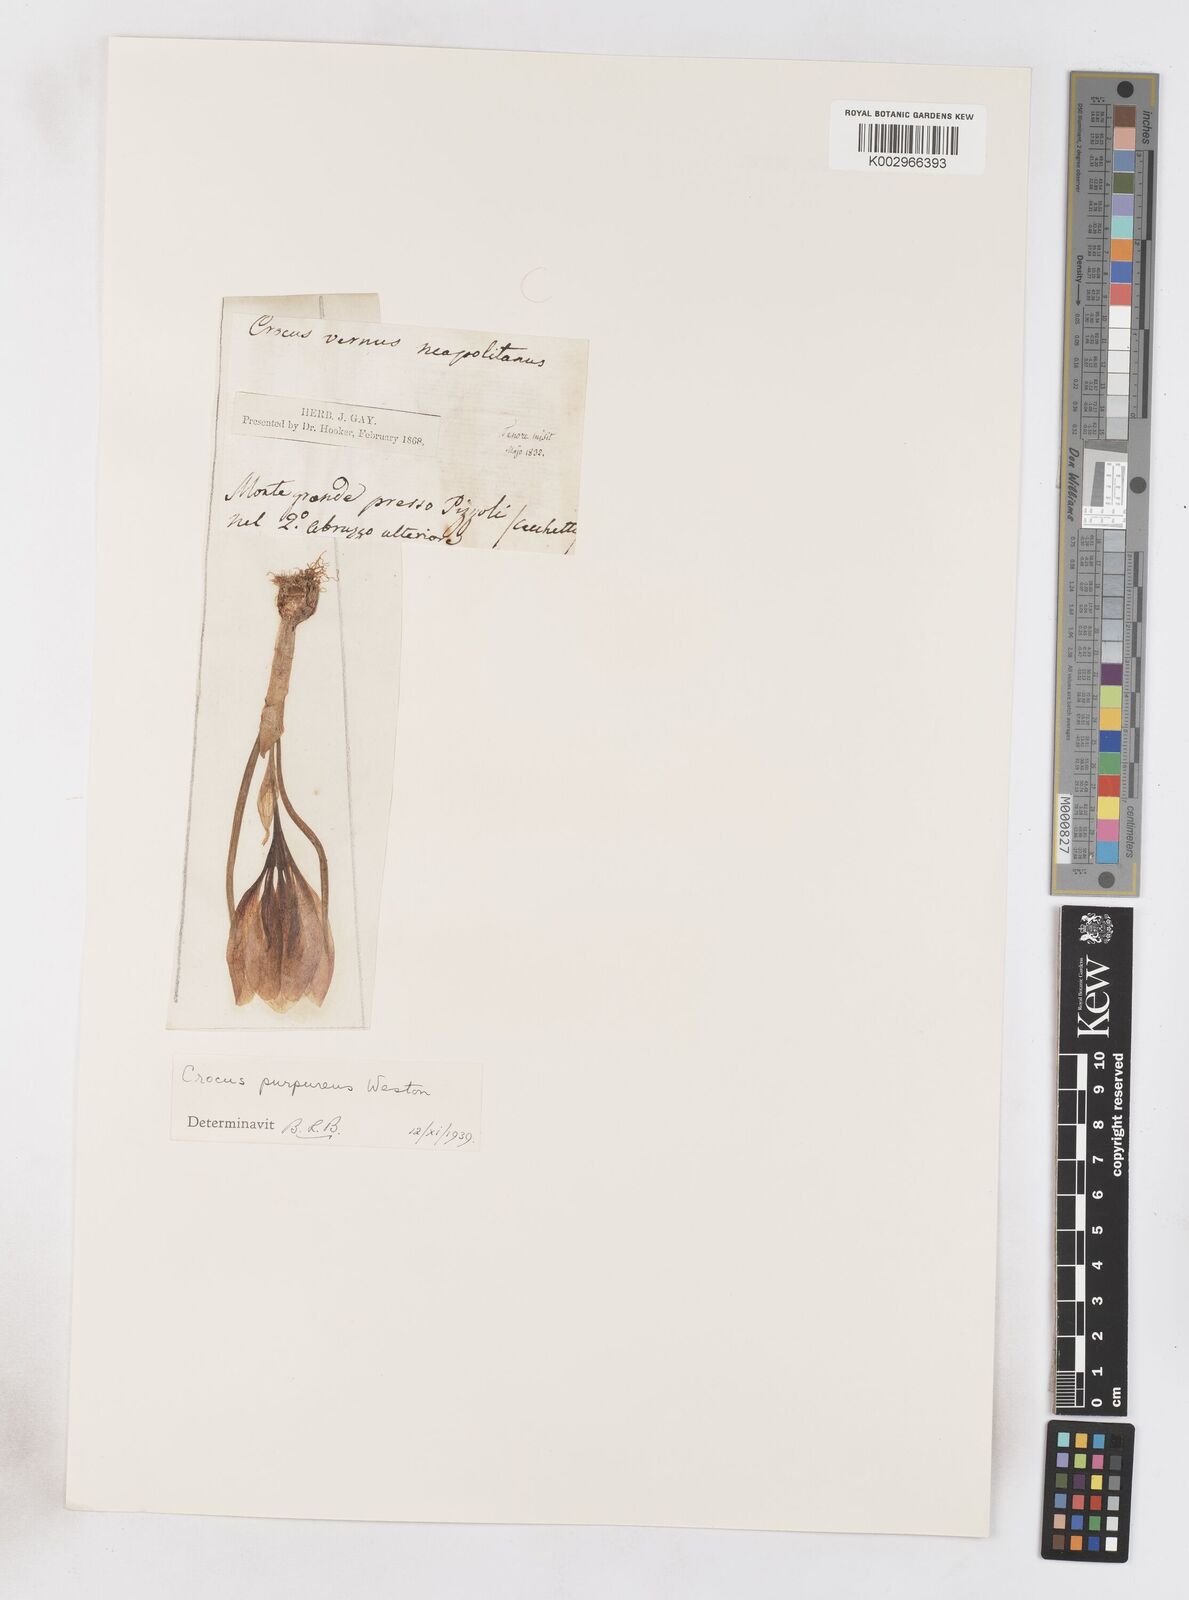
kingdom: Plantae
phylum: Tracheophyta
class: Liliopsida
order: Asparagales
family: Iridaceae
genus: Crocus
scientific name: Crocus vernus
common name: Spring crocus
